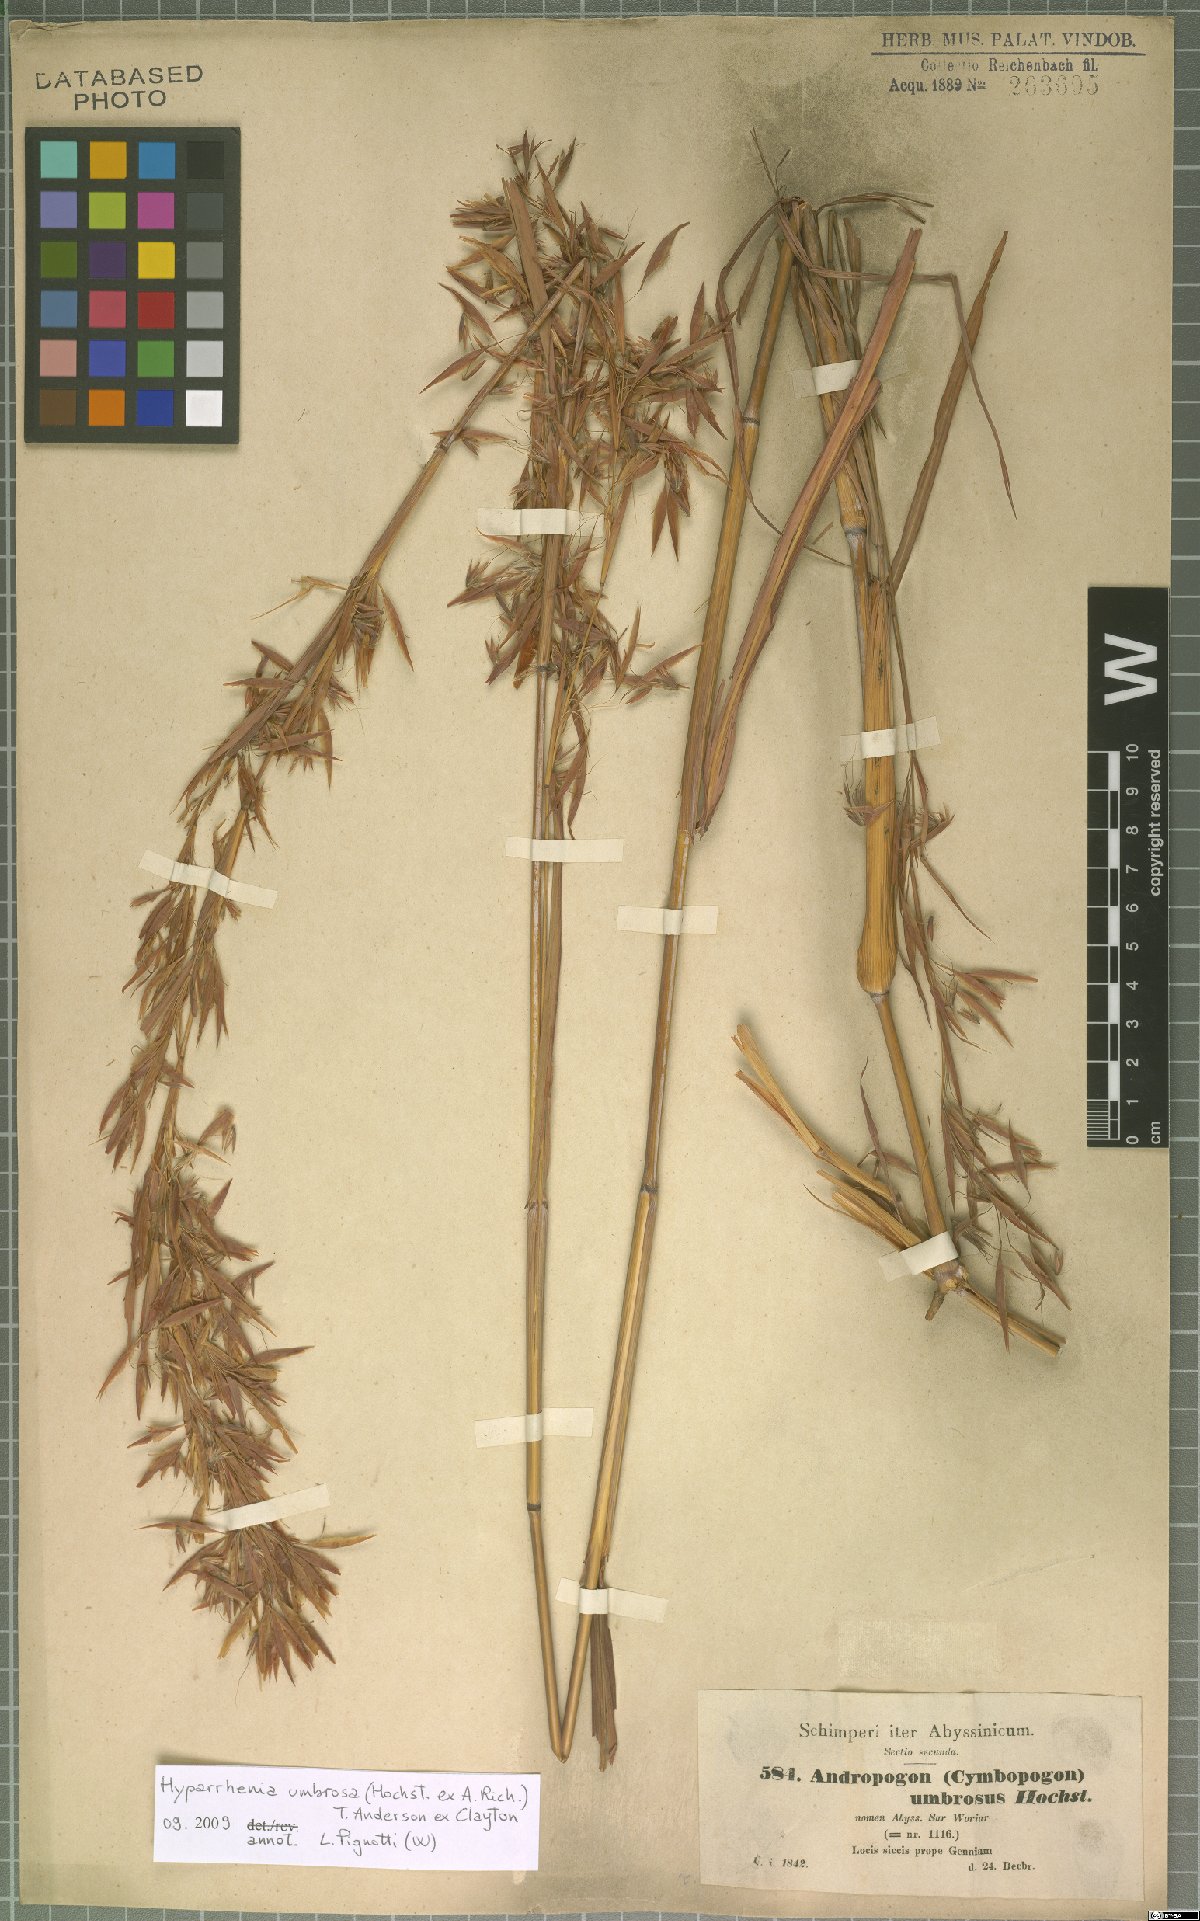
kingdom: Plantae
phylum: Tracheophyta
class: Liliopsida
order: Poales
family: Poaceae
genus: Hyparrhenia
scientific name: Hyparrhenia umbrosa
